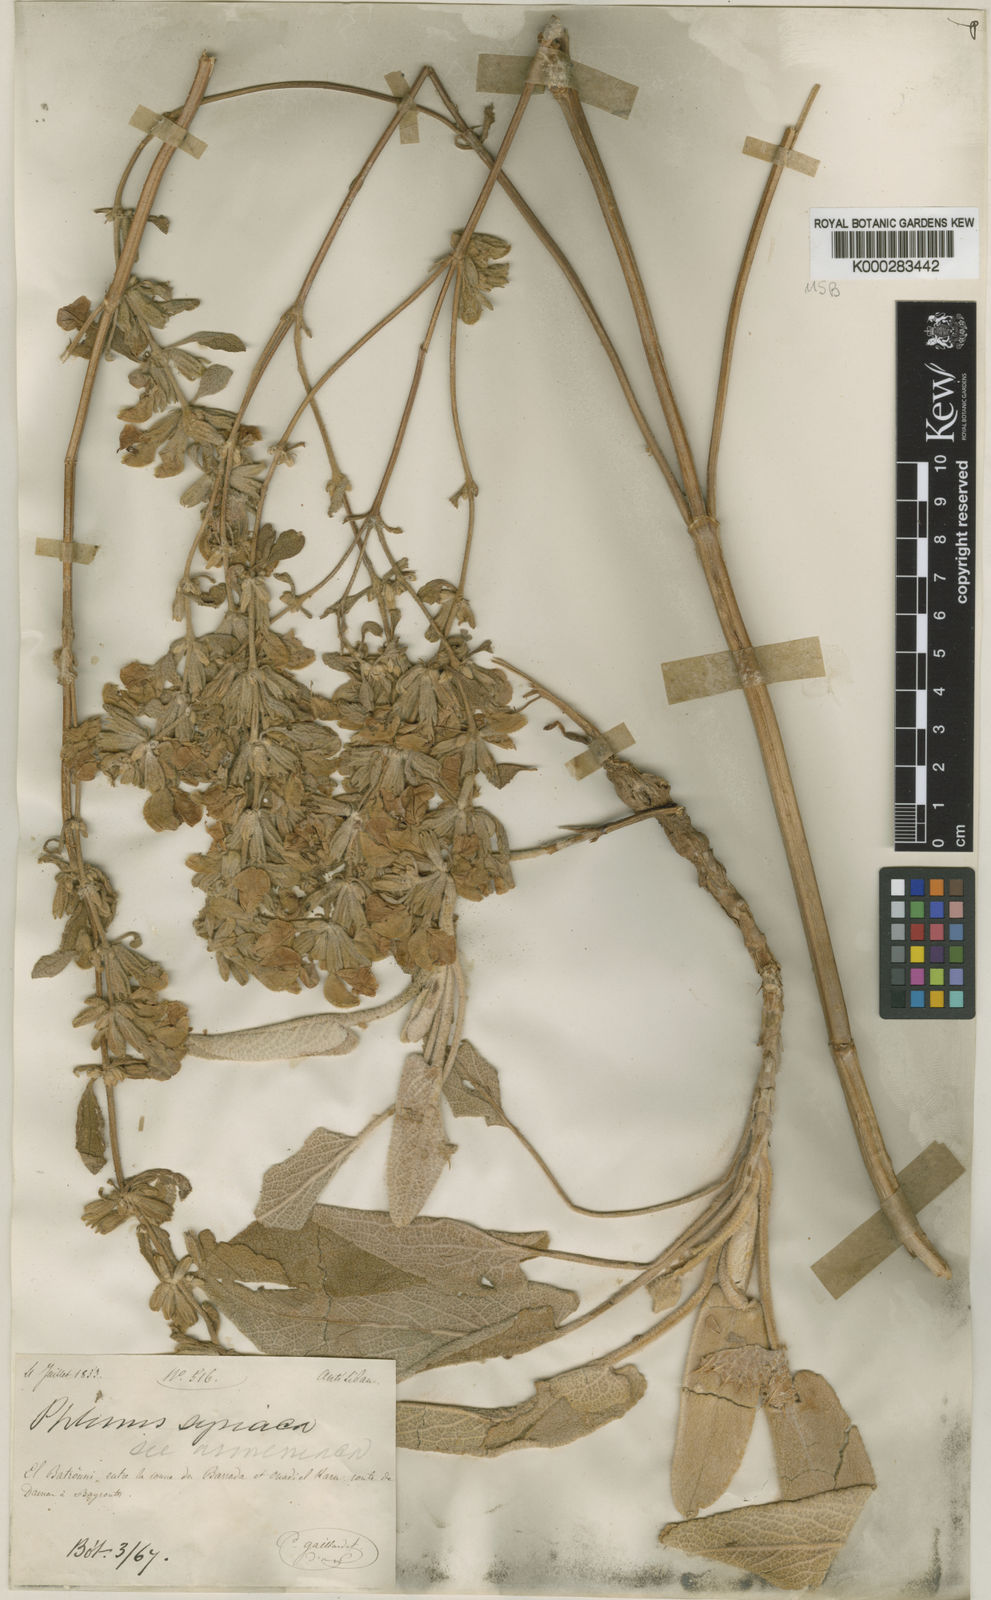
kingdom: Plantae
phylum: Tracheophyta
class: Magnoliopsida
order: Lamiales
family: Lamiaceae
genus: Phlomis
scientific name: Phlomis syriaca
